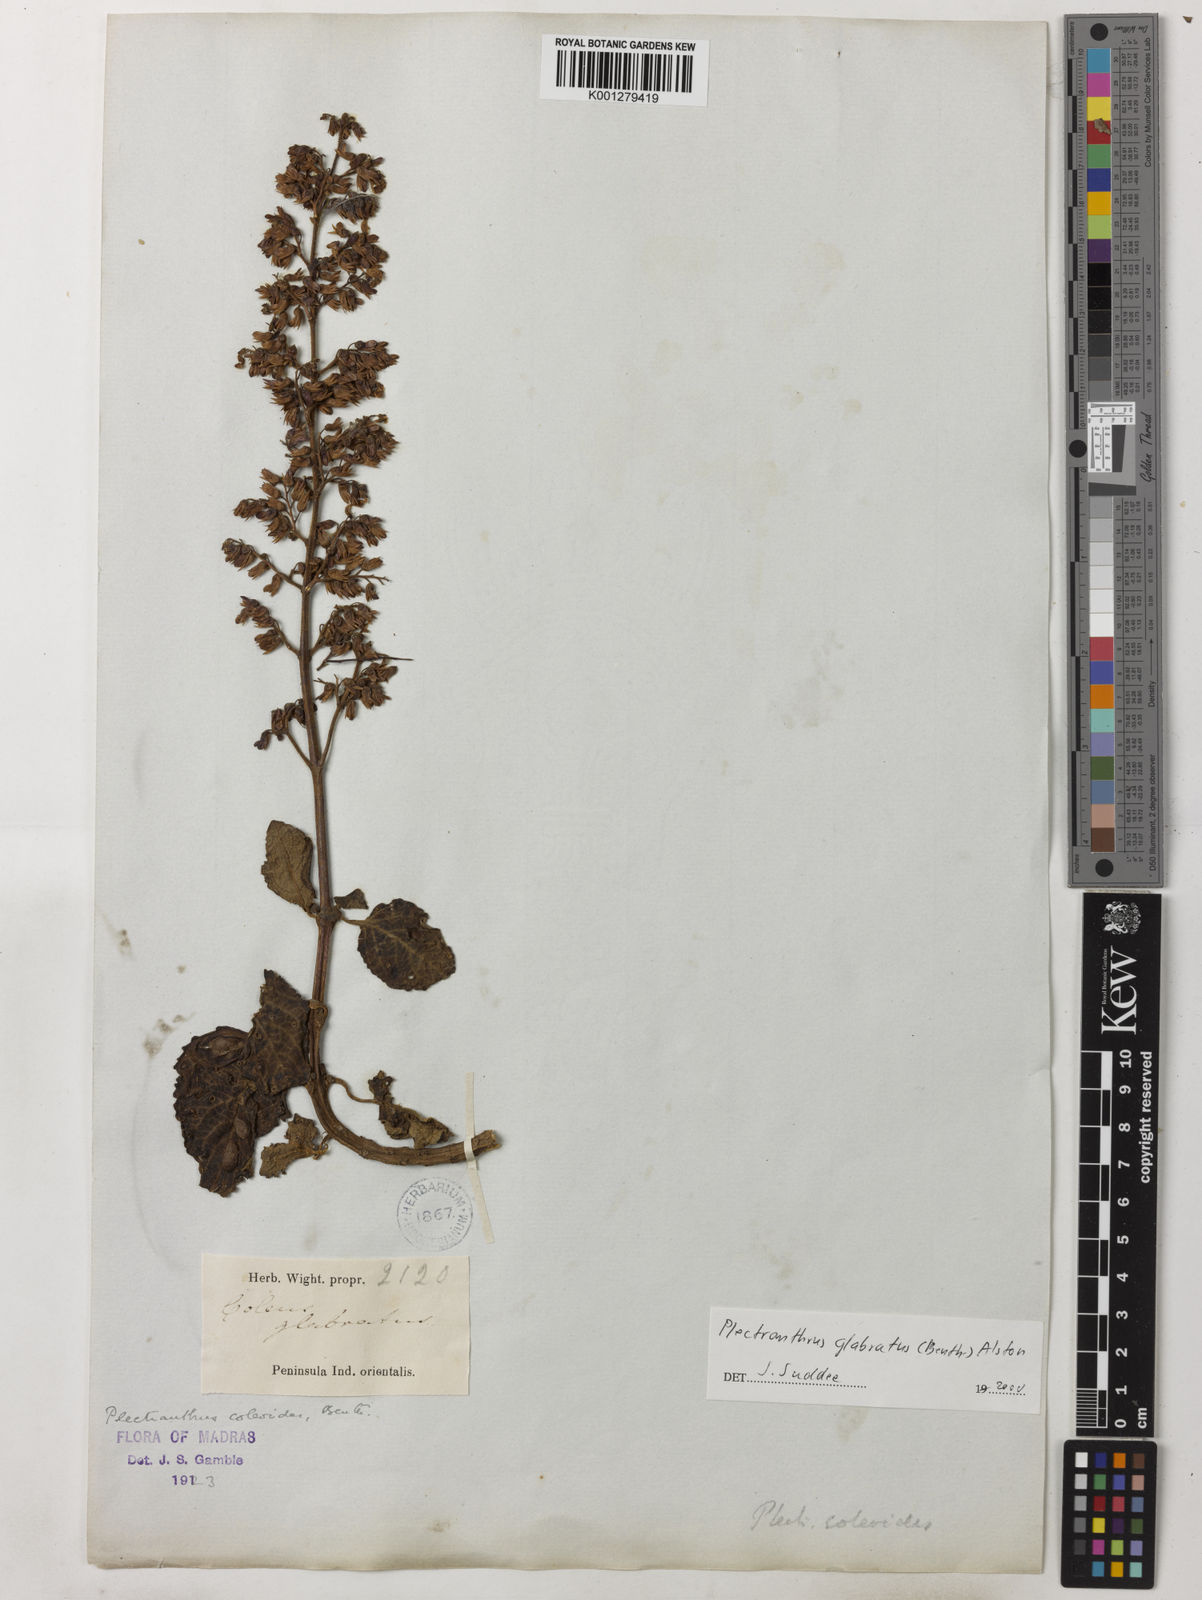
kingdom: Plantae
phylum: Tracheophyta
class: Magnoliopsida
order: Lamiales
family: Lamiaceae
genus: Coleus
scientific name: Coleus paniculatus
